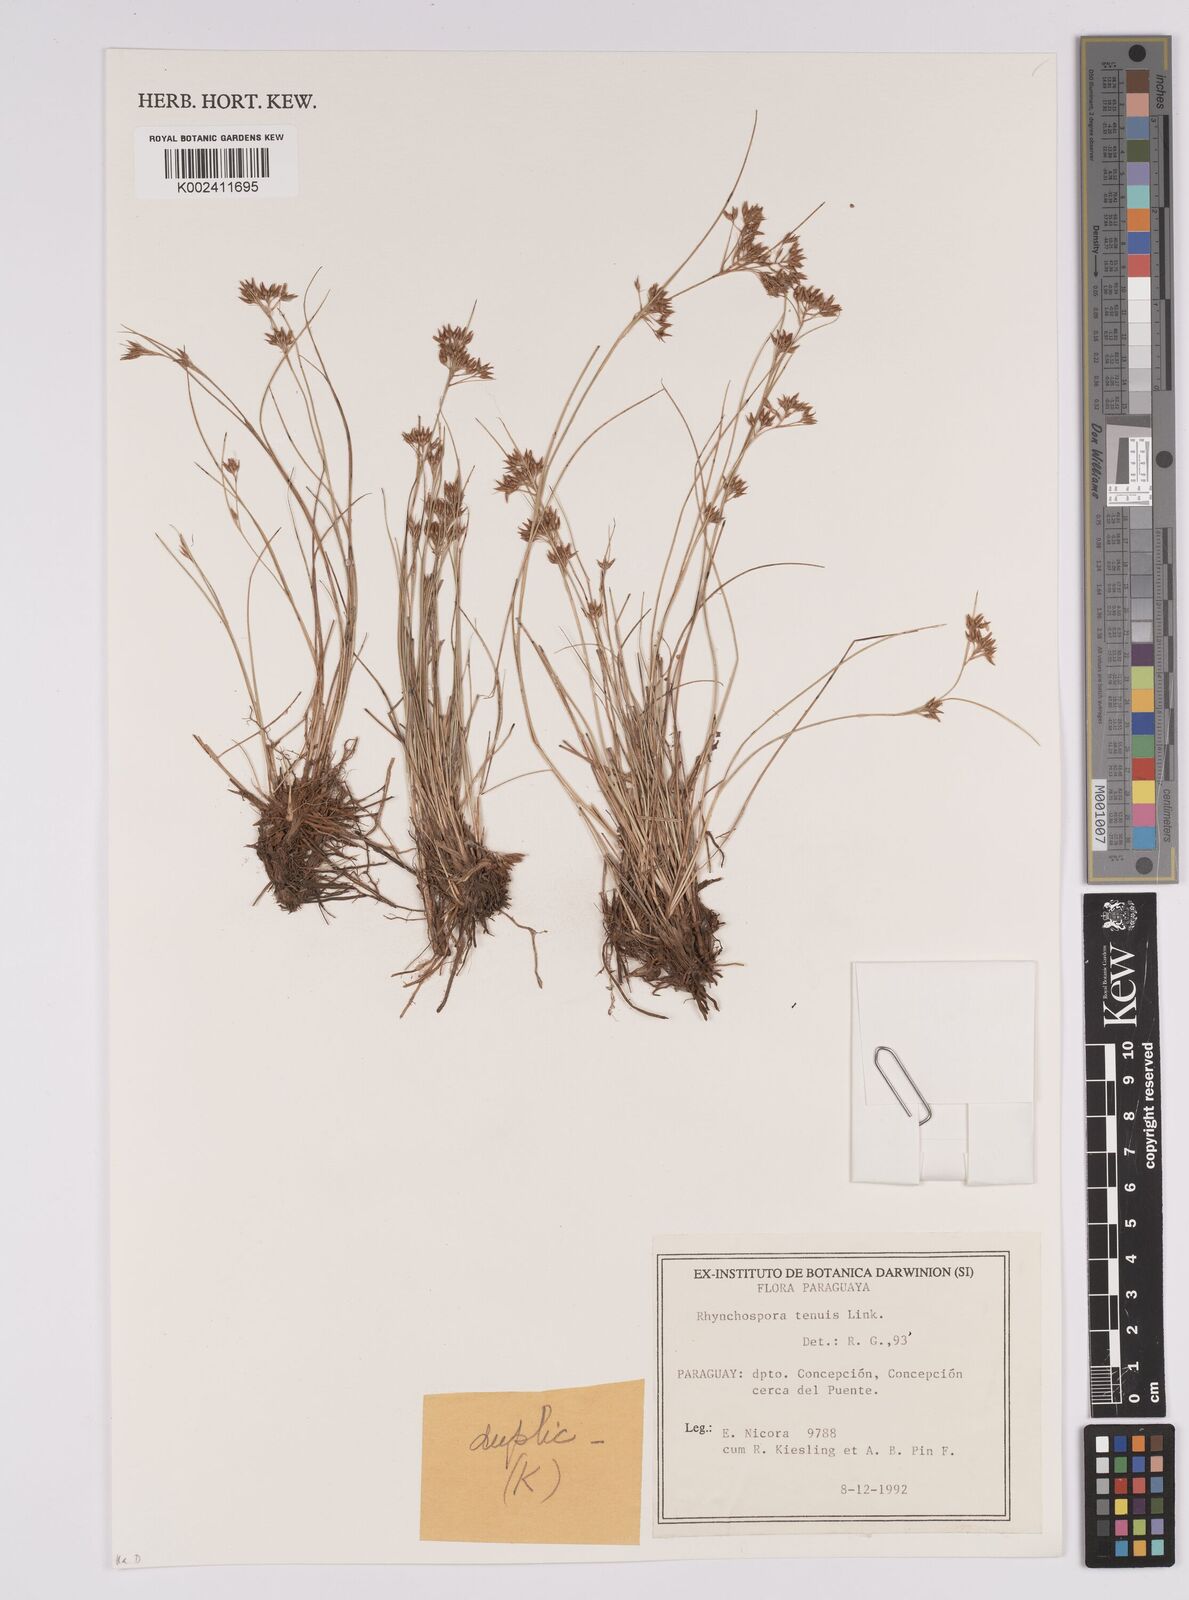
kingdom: Plantae
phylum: Tracheophyta
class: Liliopsida
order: Poales
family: Cyperaceae
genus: Rhynchospora
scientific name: Rhynchospora tenuis
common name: Quill beaksedge
